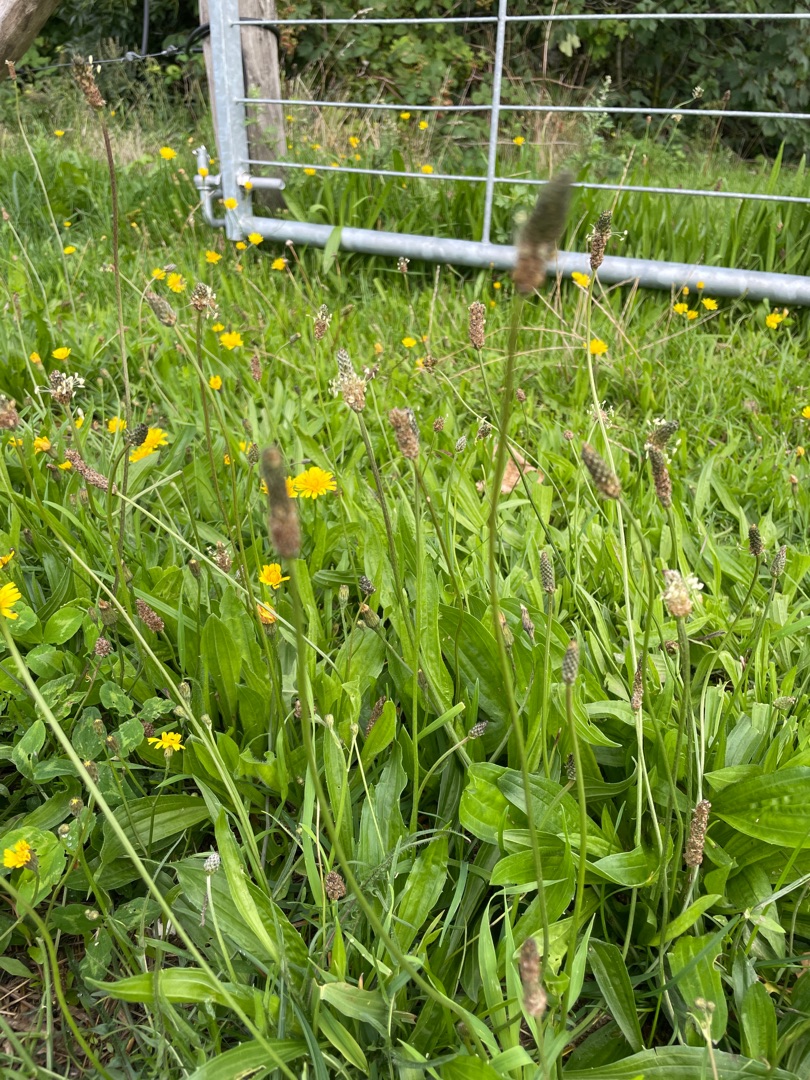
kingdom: Plantae
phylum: Tracheophyta
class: Magnoliopsida
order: Lamiales
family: Plantaginaceae
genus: Plantago
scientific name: Plantago lanceolata
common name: Lancet-vejbred
